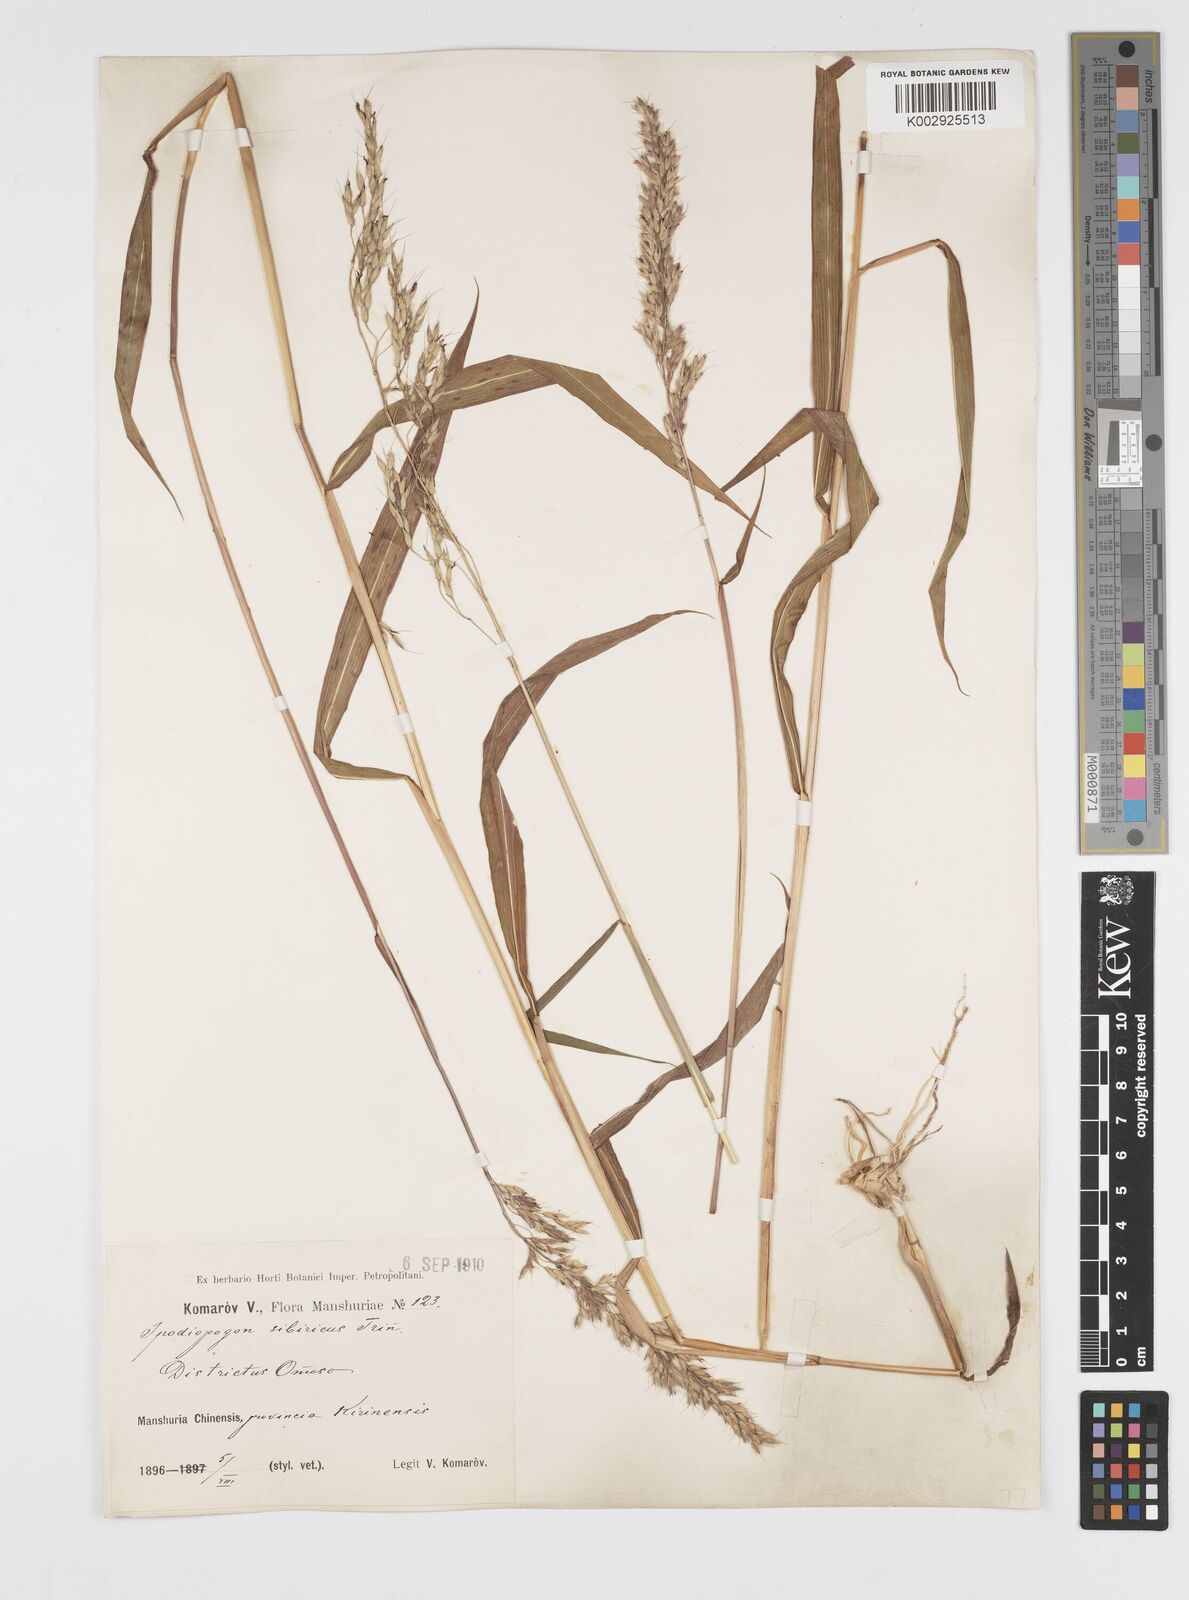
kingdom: Plantae
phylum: Tracheophyta
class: Liliopsida
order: Poales
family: Poaceae
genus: Spodiopogon
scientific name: Spodiopogon sibiricus
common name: Siberian graybeard
